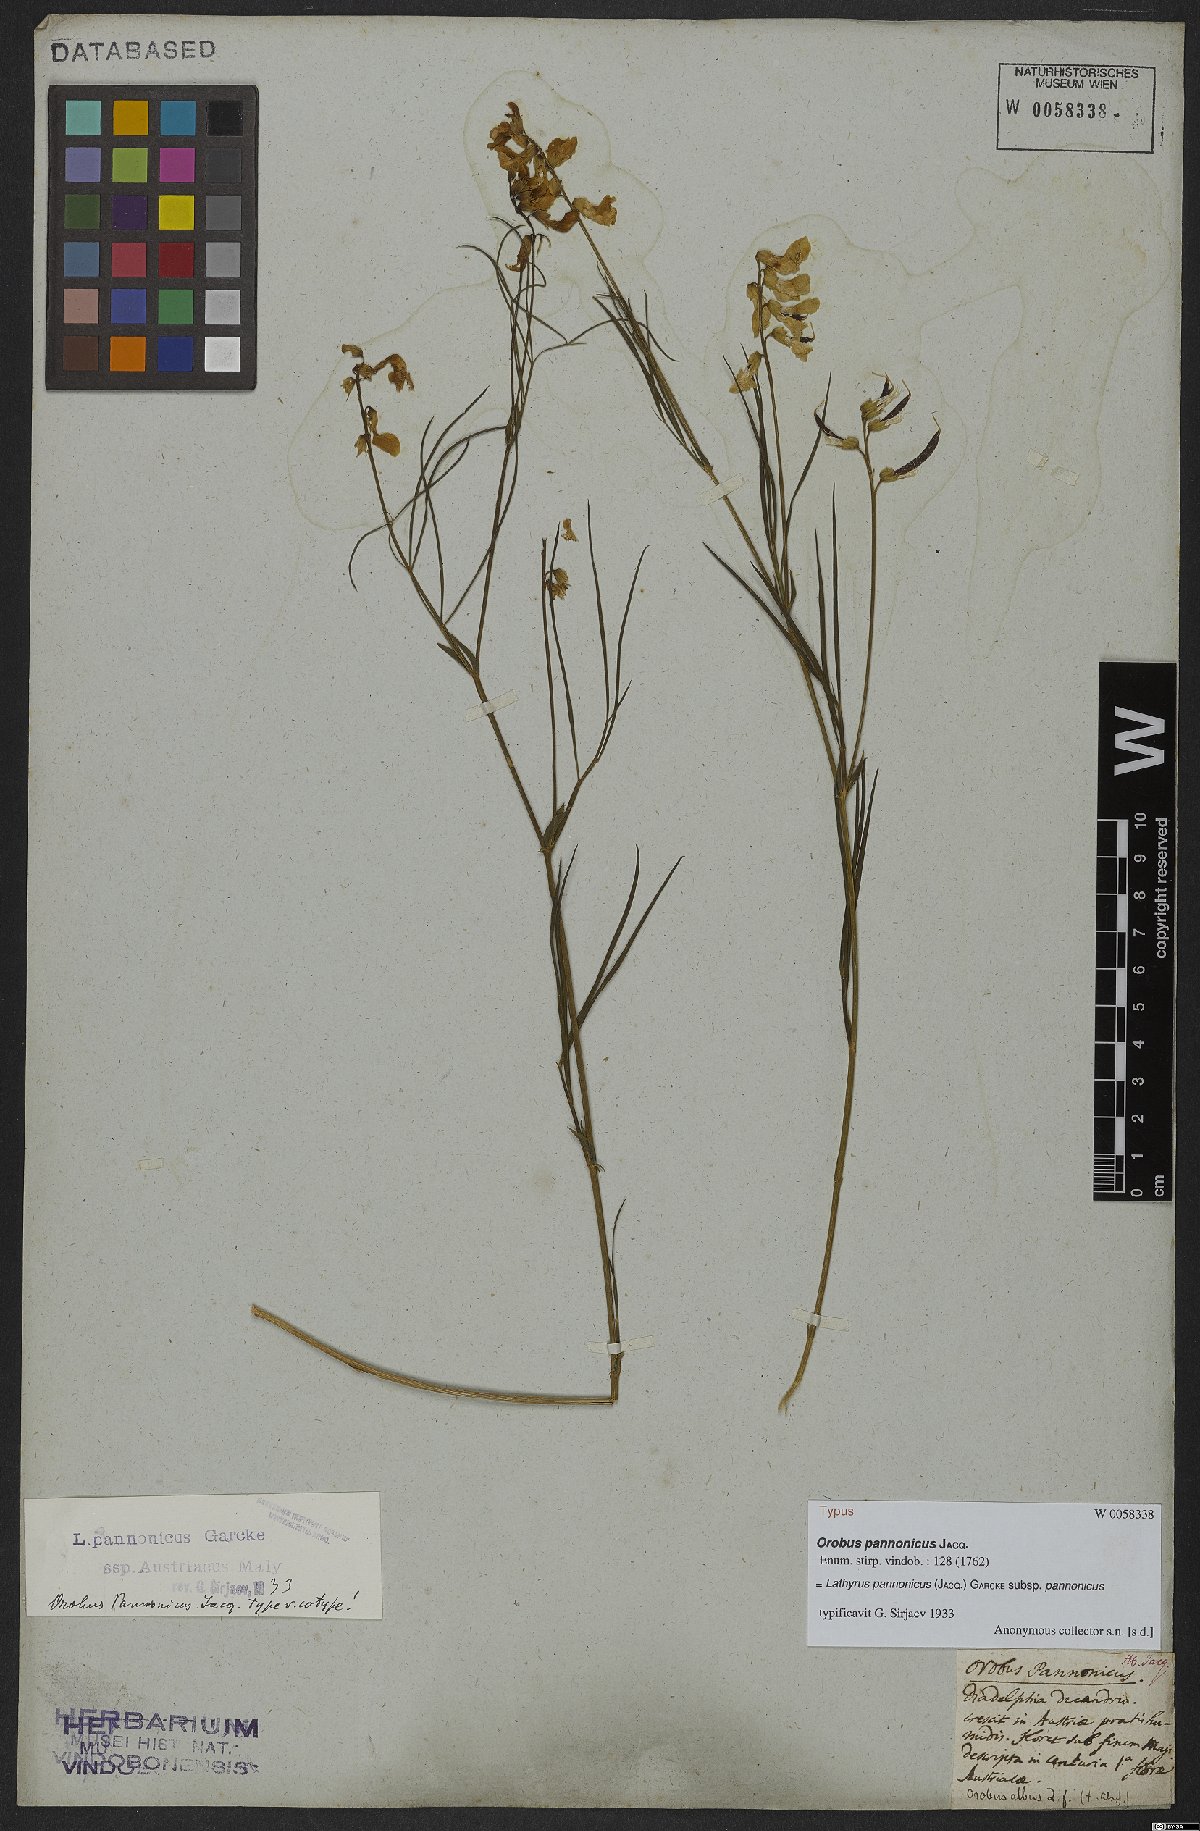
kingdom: Plantae
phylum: Tracheophyta
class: Magnoliopsida
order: Fabales
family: Fabaceae
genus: Lathyrus
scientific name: Lathyrus pannonicus
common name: Pea
